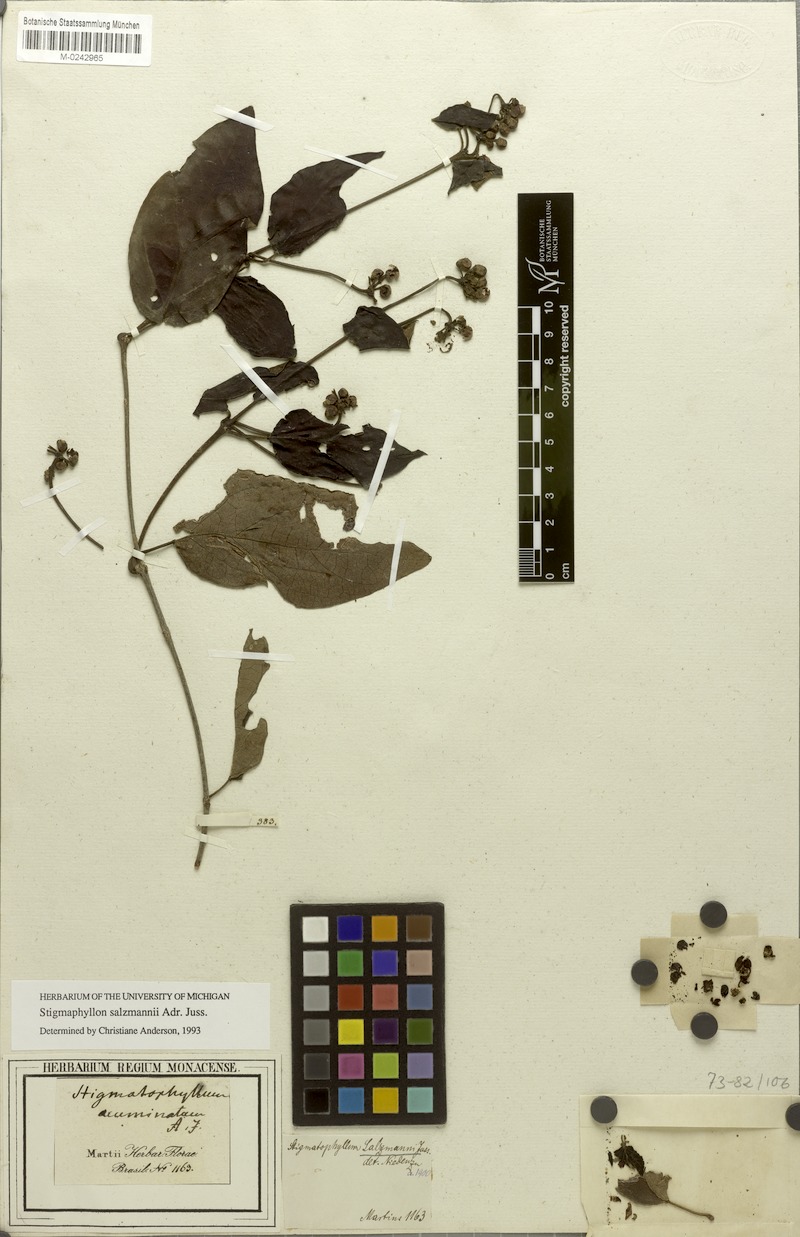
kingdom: Plantae
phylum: Tracheophyta
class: Magnoliopsida
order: Malpighiales
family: Malpighiaceae
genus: Stigmaphyllon
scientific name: Stigmaphyllon salzmannii
